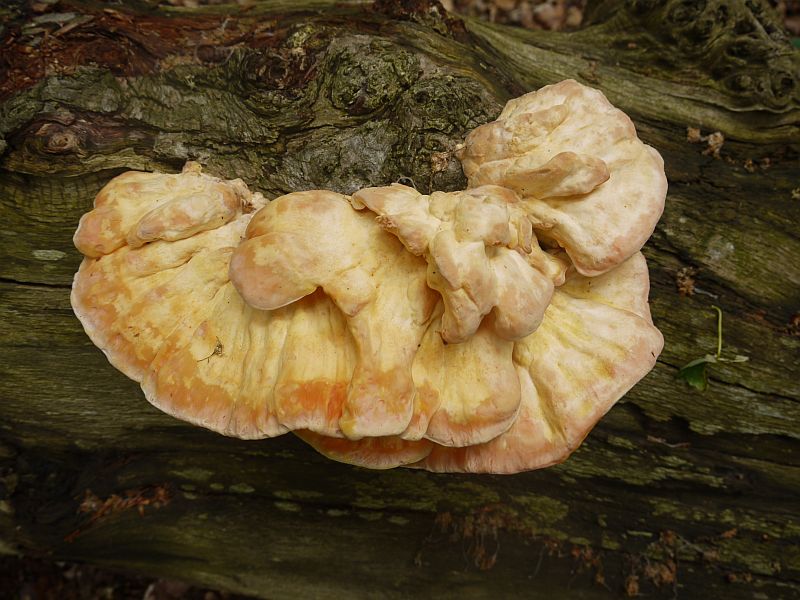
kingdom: Fungi
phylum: Basidiomycota
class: Agaricomycetes
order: Polyporales
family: Laetiporaceae
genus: Laetiporus
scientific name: Laetiporus sulphureus
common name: svovlporesvamp
